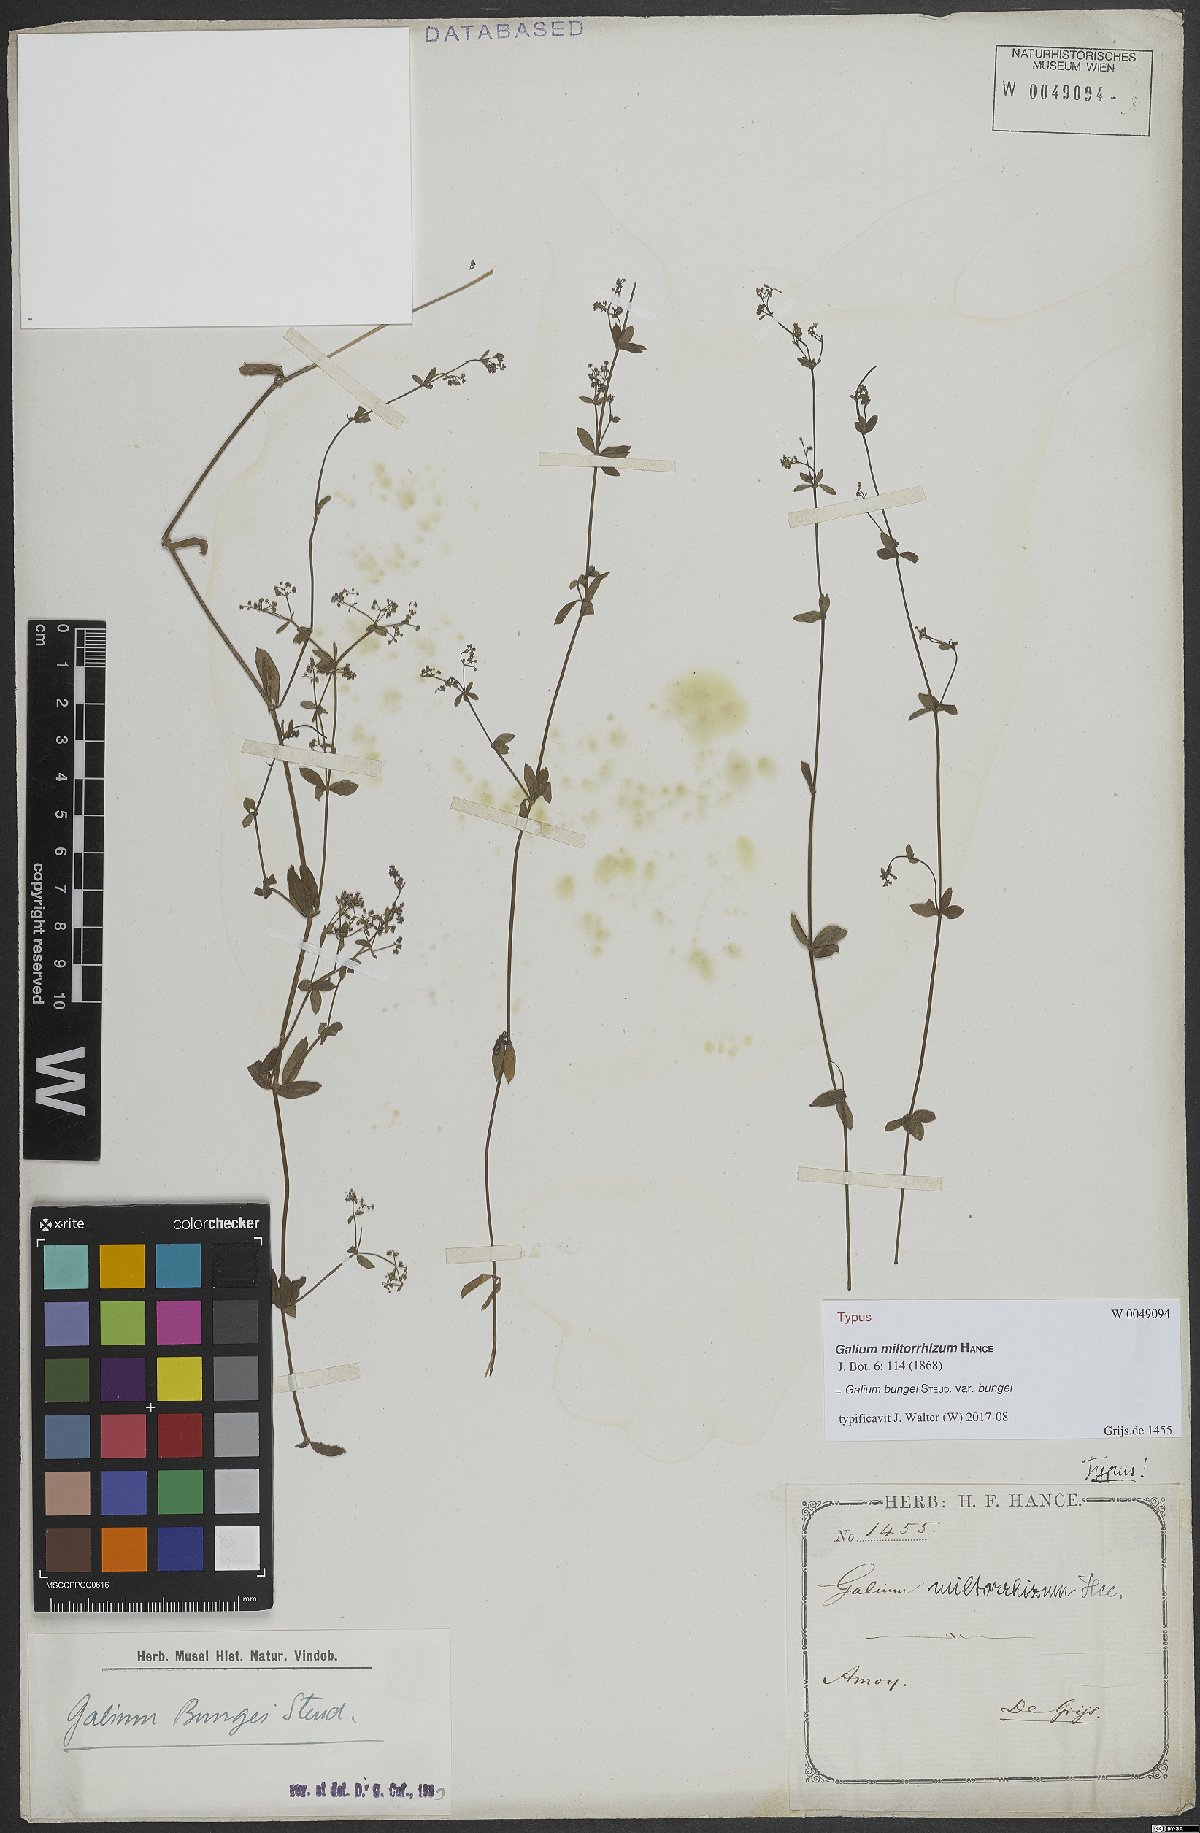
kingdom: Plantae
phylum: Tracheophyta
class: Magnoliopsida
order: Gentianales
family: Rubiaceae
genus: Galium
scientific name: Galium bungei
